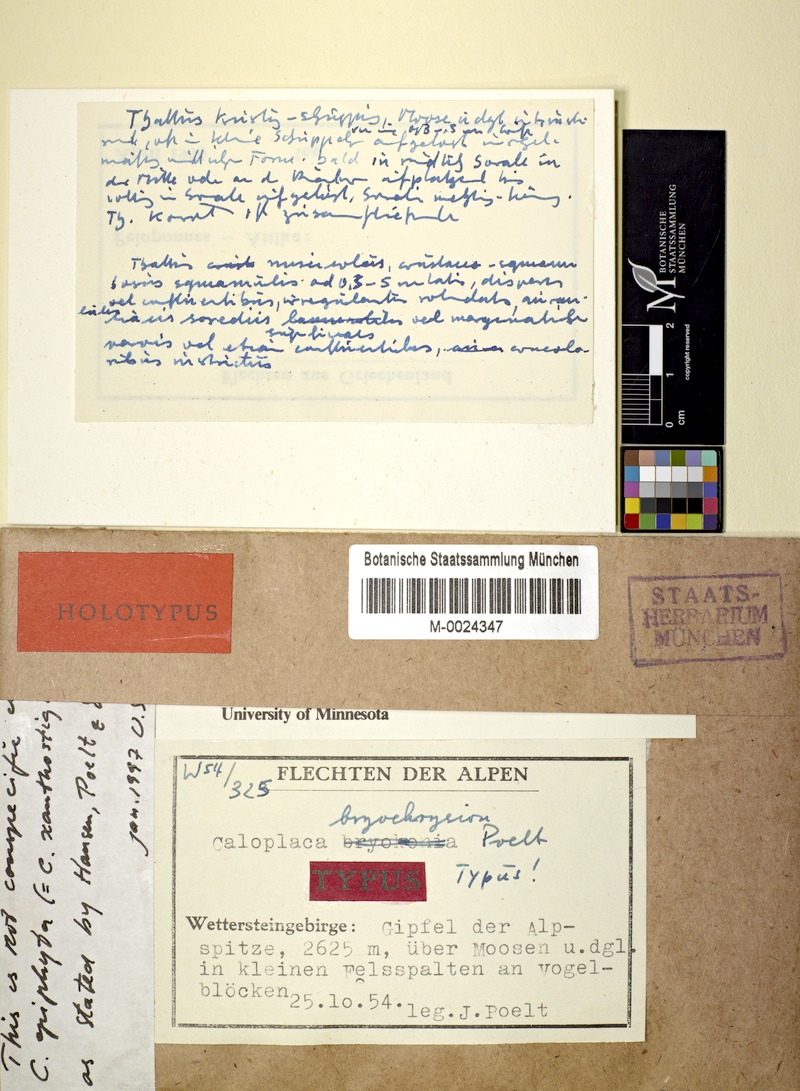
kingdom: Fungi
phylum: Ascomycota
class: Lecanoromycetes
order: Teloschistales
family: Teloschistaceae
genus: Calogaya
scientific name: Calogaya bryochrysion
